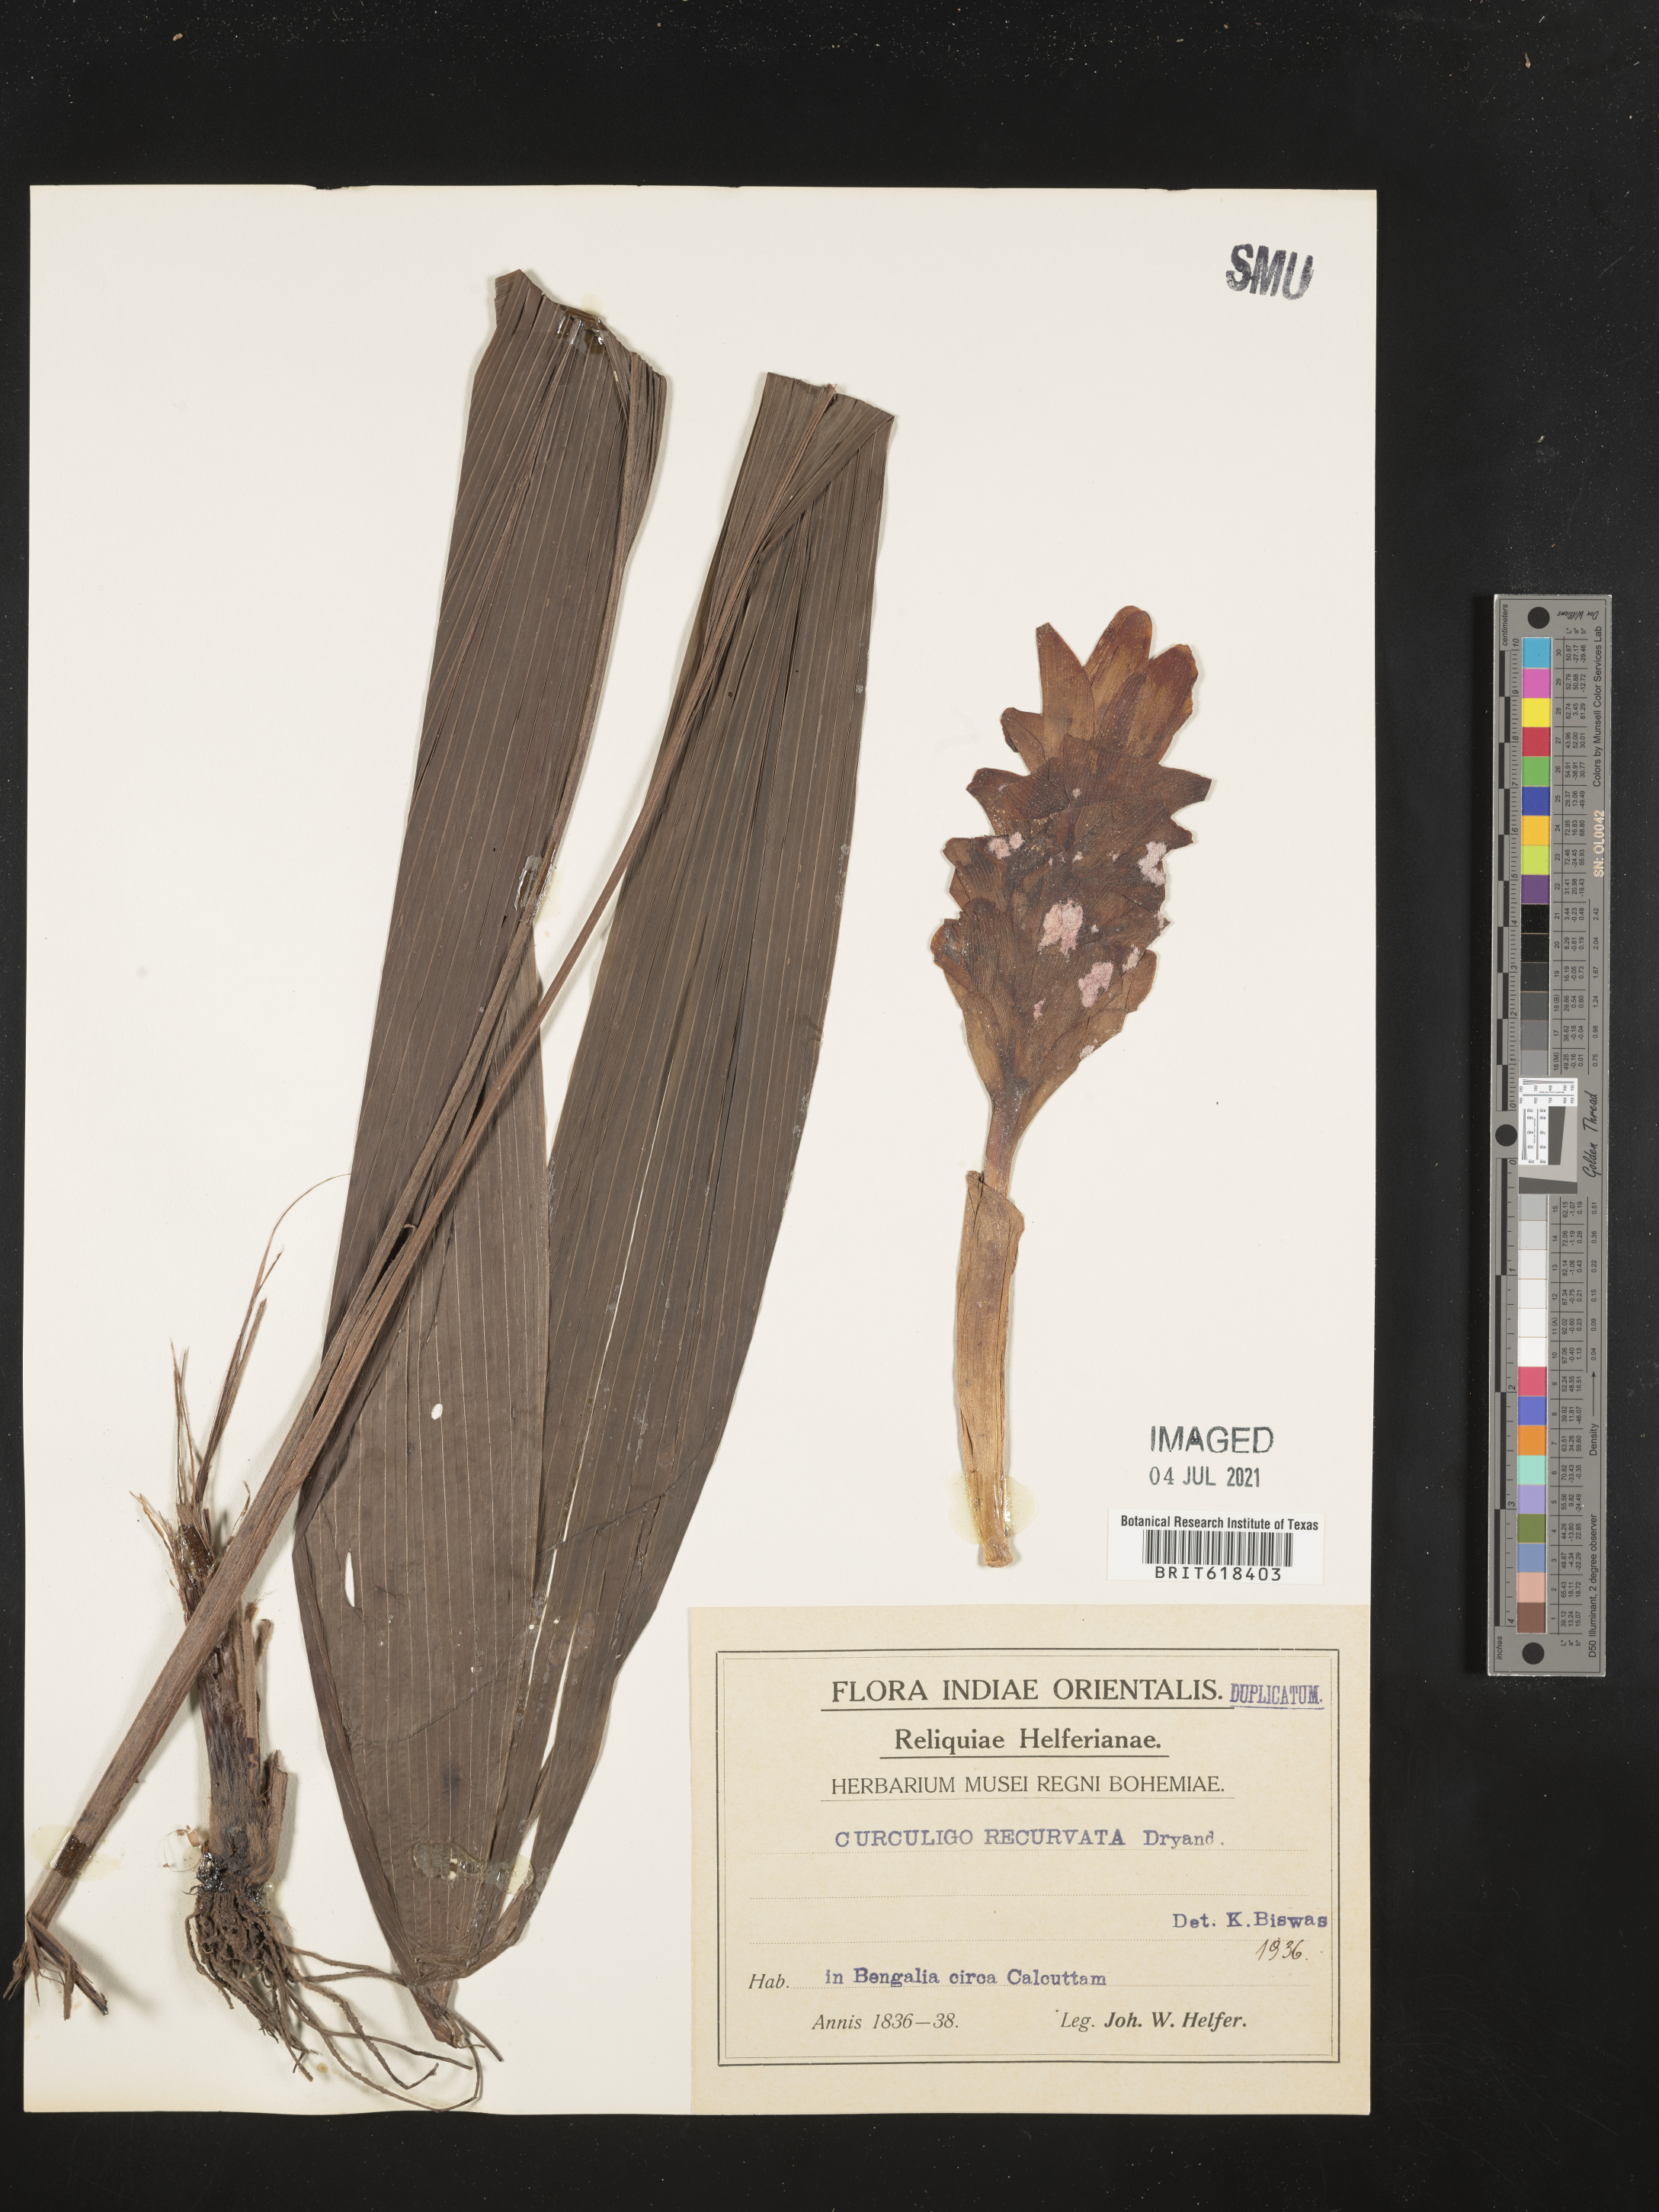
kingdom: Plantae
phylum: Tracheophyta
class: Liliopsida
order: Asparagales
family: Hypoxidaceae
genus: Curculigo
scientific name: Curculigo capitulata
